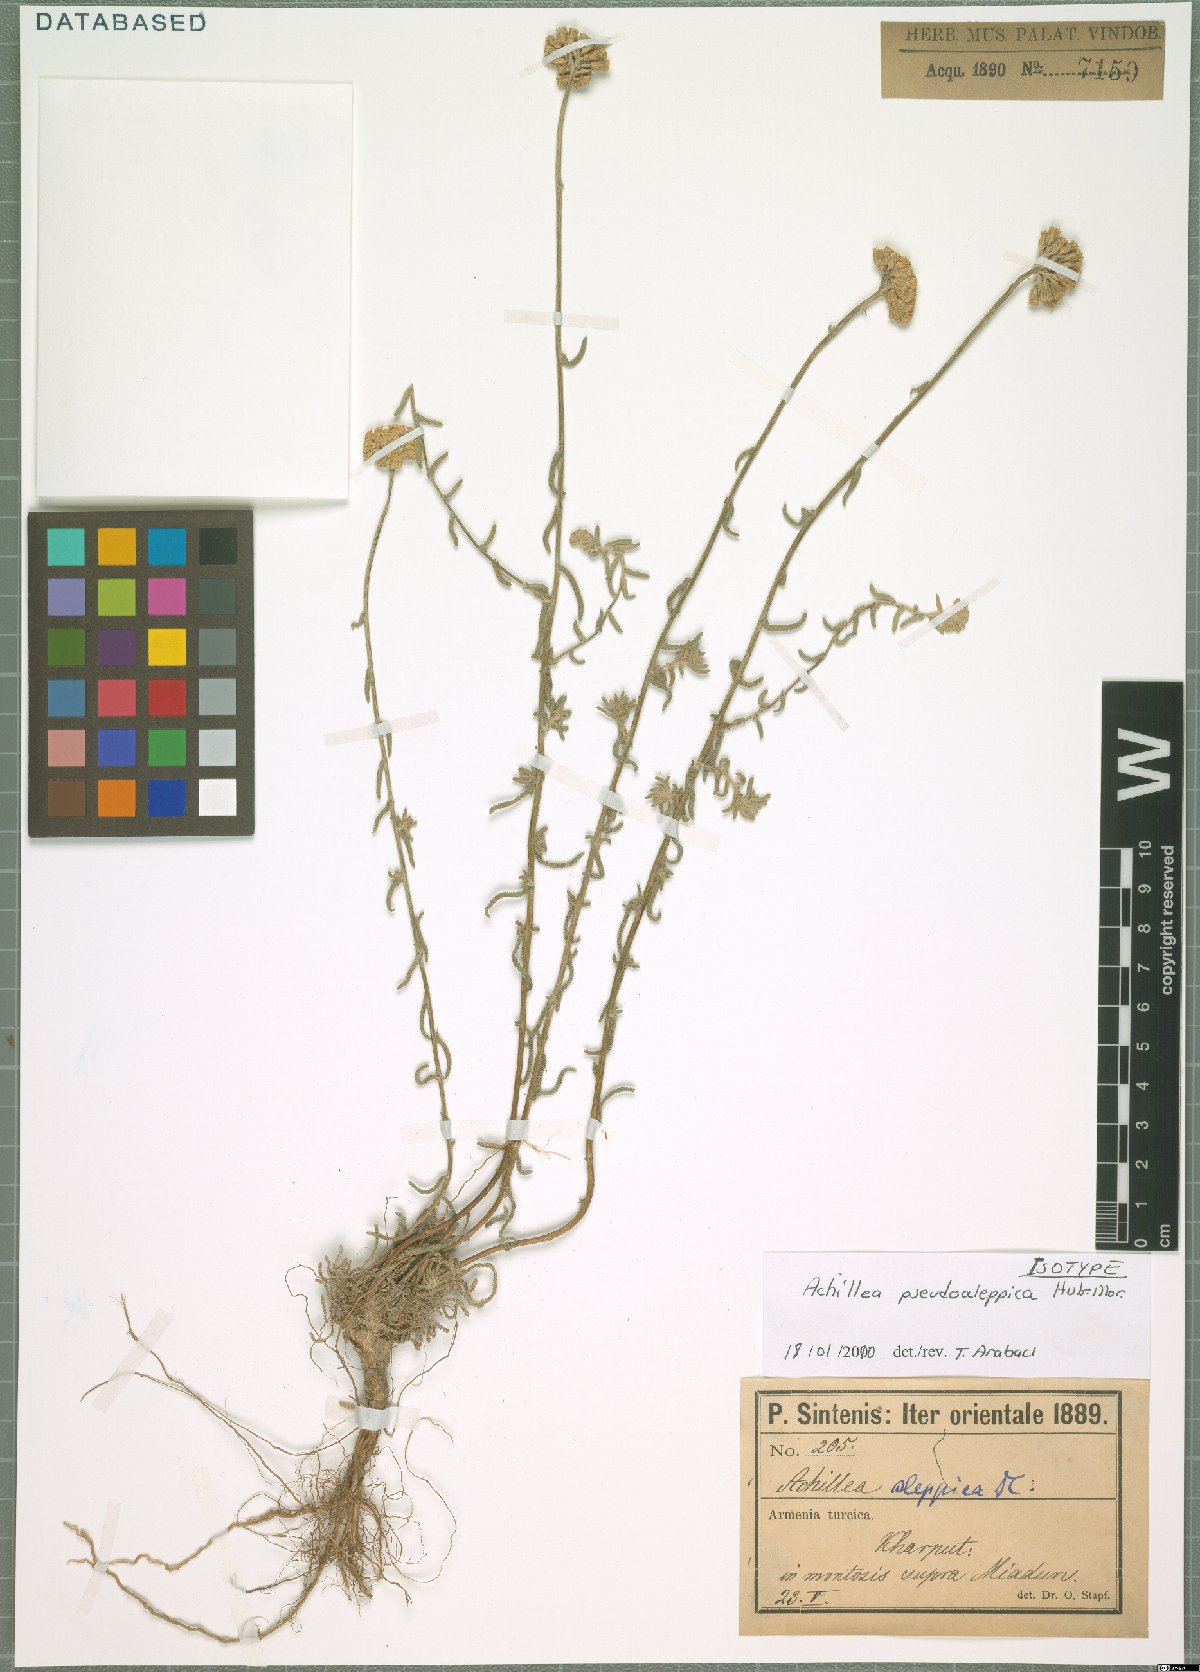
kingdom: Plantae
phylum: Tracheophyta
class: Magnoliopsida
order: Asterales
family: Asteraceae
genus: Achillea
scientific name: Achillea pseudoaleppica
